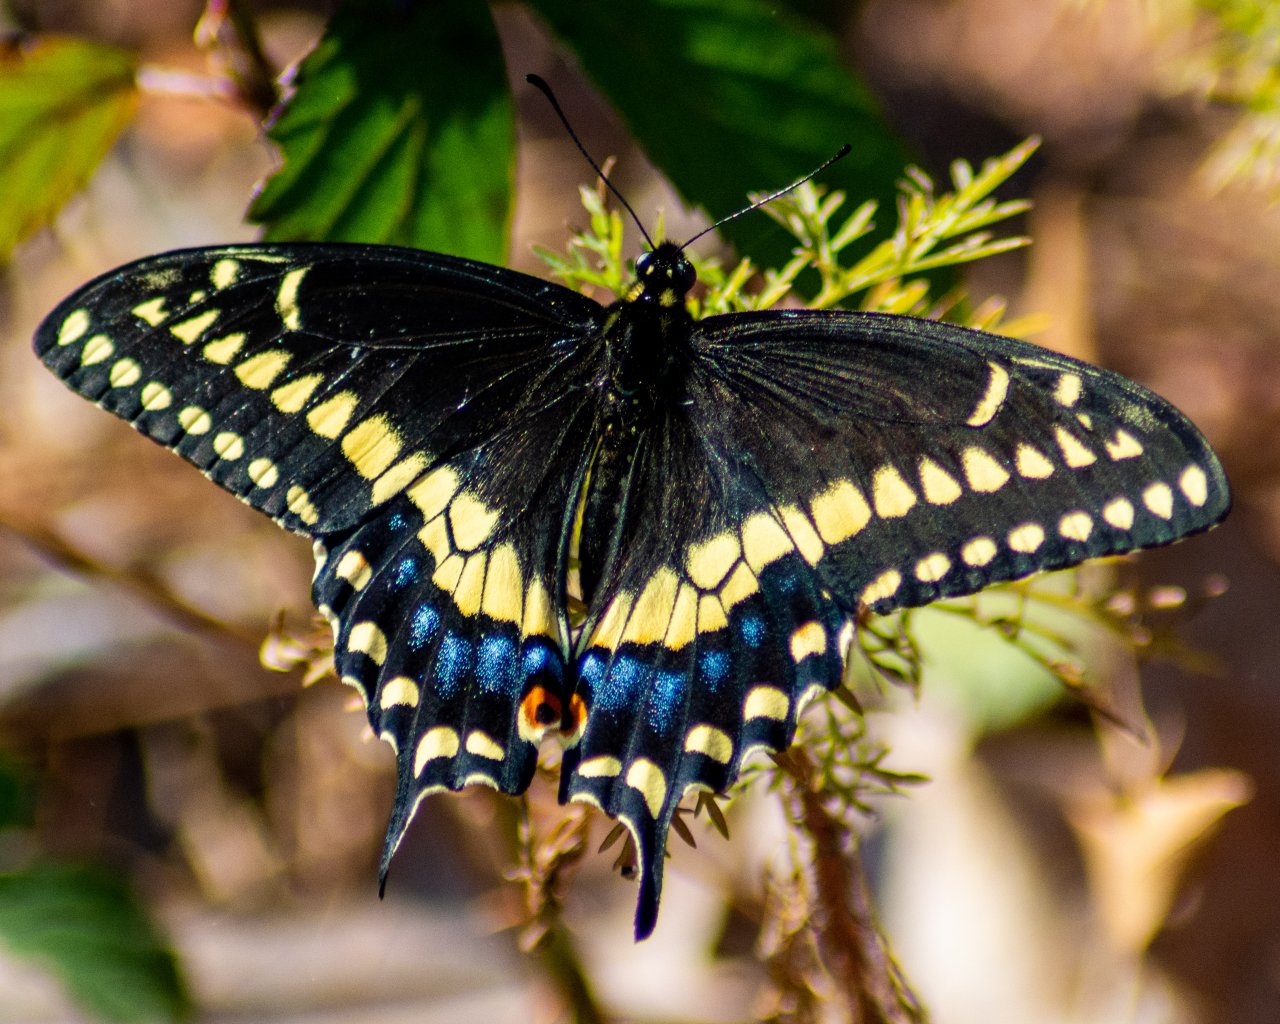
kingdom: Animalia
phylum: Arthropoda
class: Insecta
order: Lepidoptera
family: Papilionidae
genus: Papilio
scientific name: Papilio polyxenes
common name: Black Swallowtail
